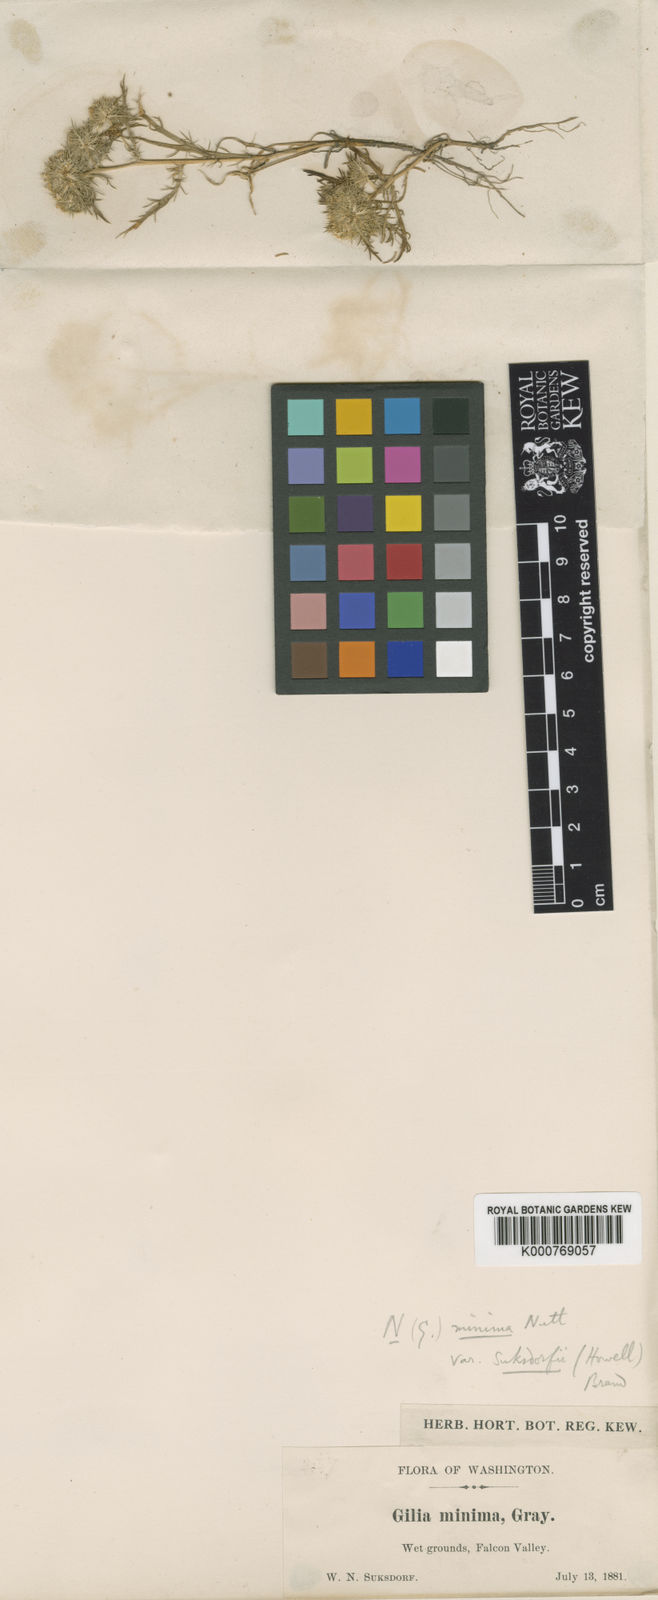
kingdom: Plantae
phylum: Tracheophyta
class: Magnoliopsida
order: Ericales
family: Polemoniaceae
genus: Navarretia
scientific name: Navarretia leucocephala
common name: White-flowered navarretia
